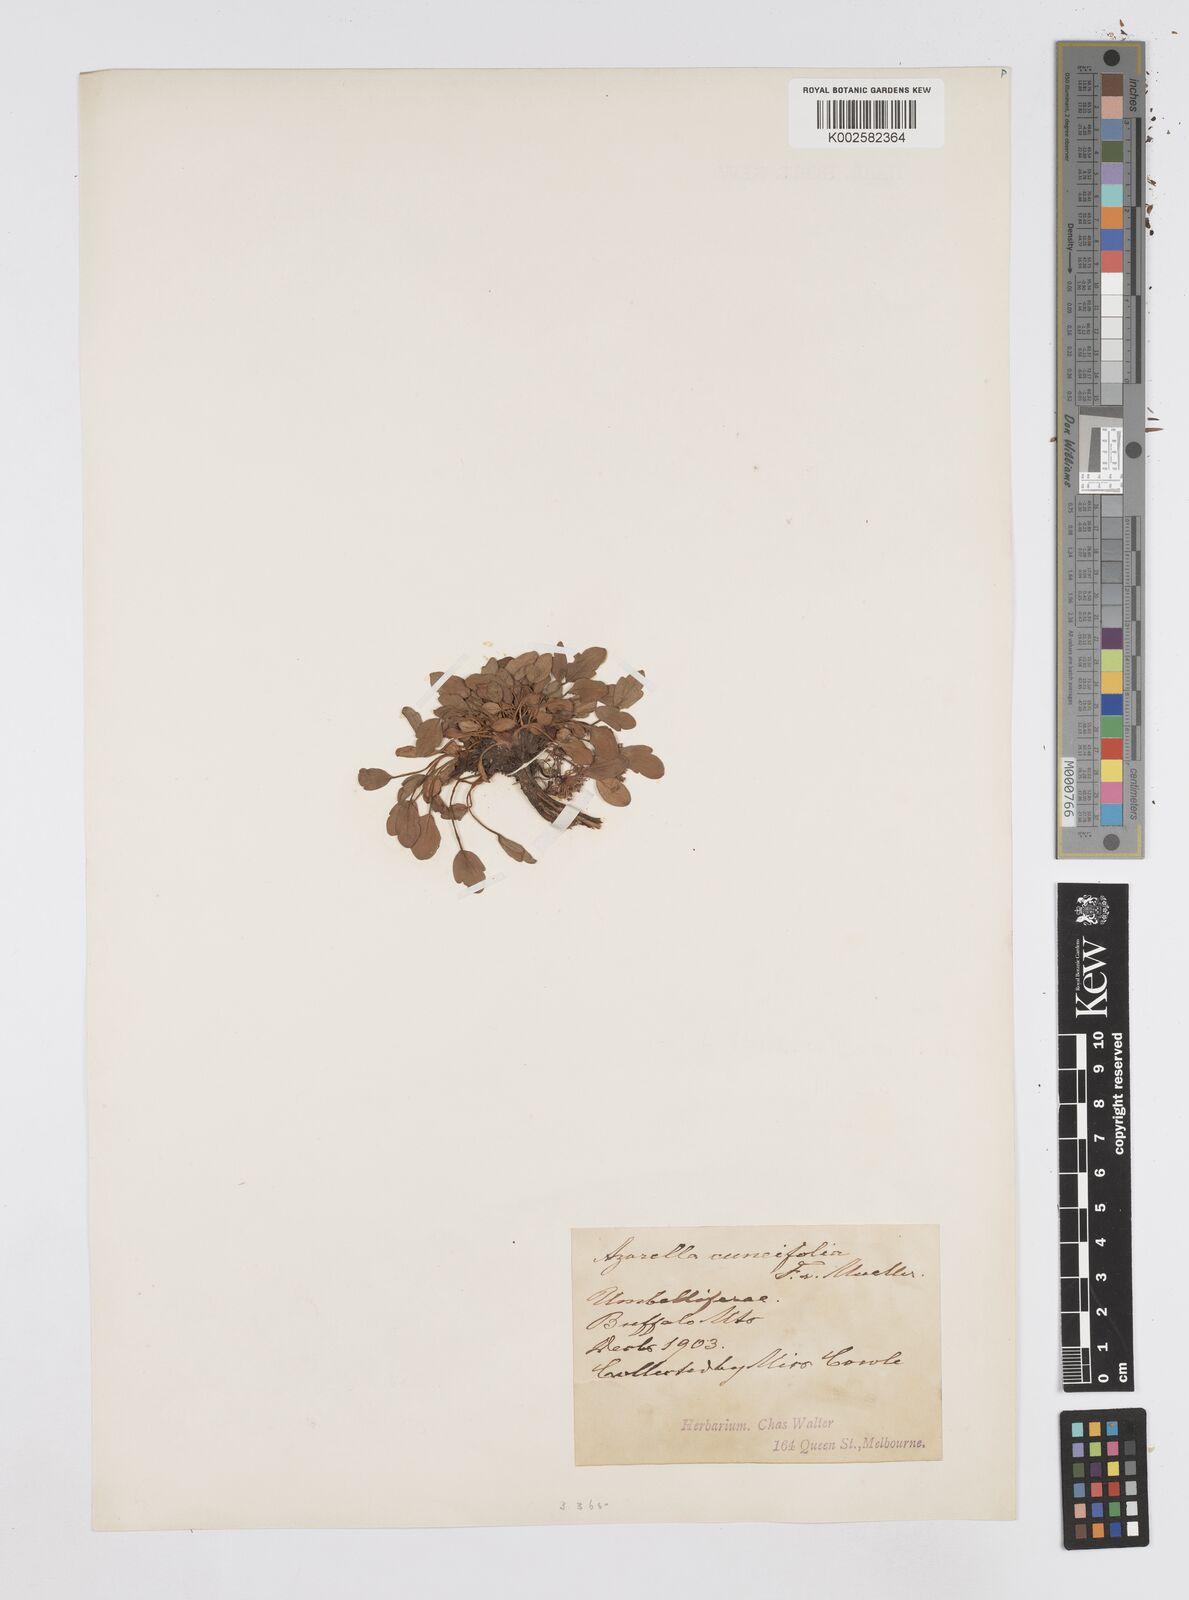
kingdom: Plantae
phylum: Tracheophyta
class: Magnoliopsida
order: Apiales
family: Apiaceae
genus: Oschatzia
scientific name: Oschatzia cuneifolia
